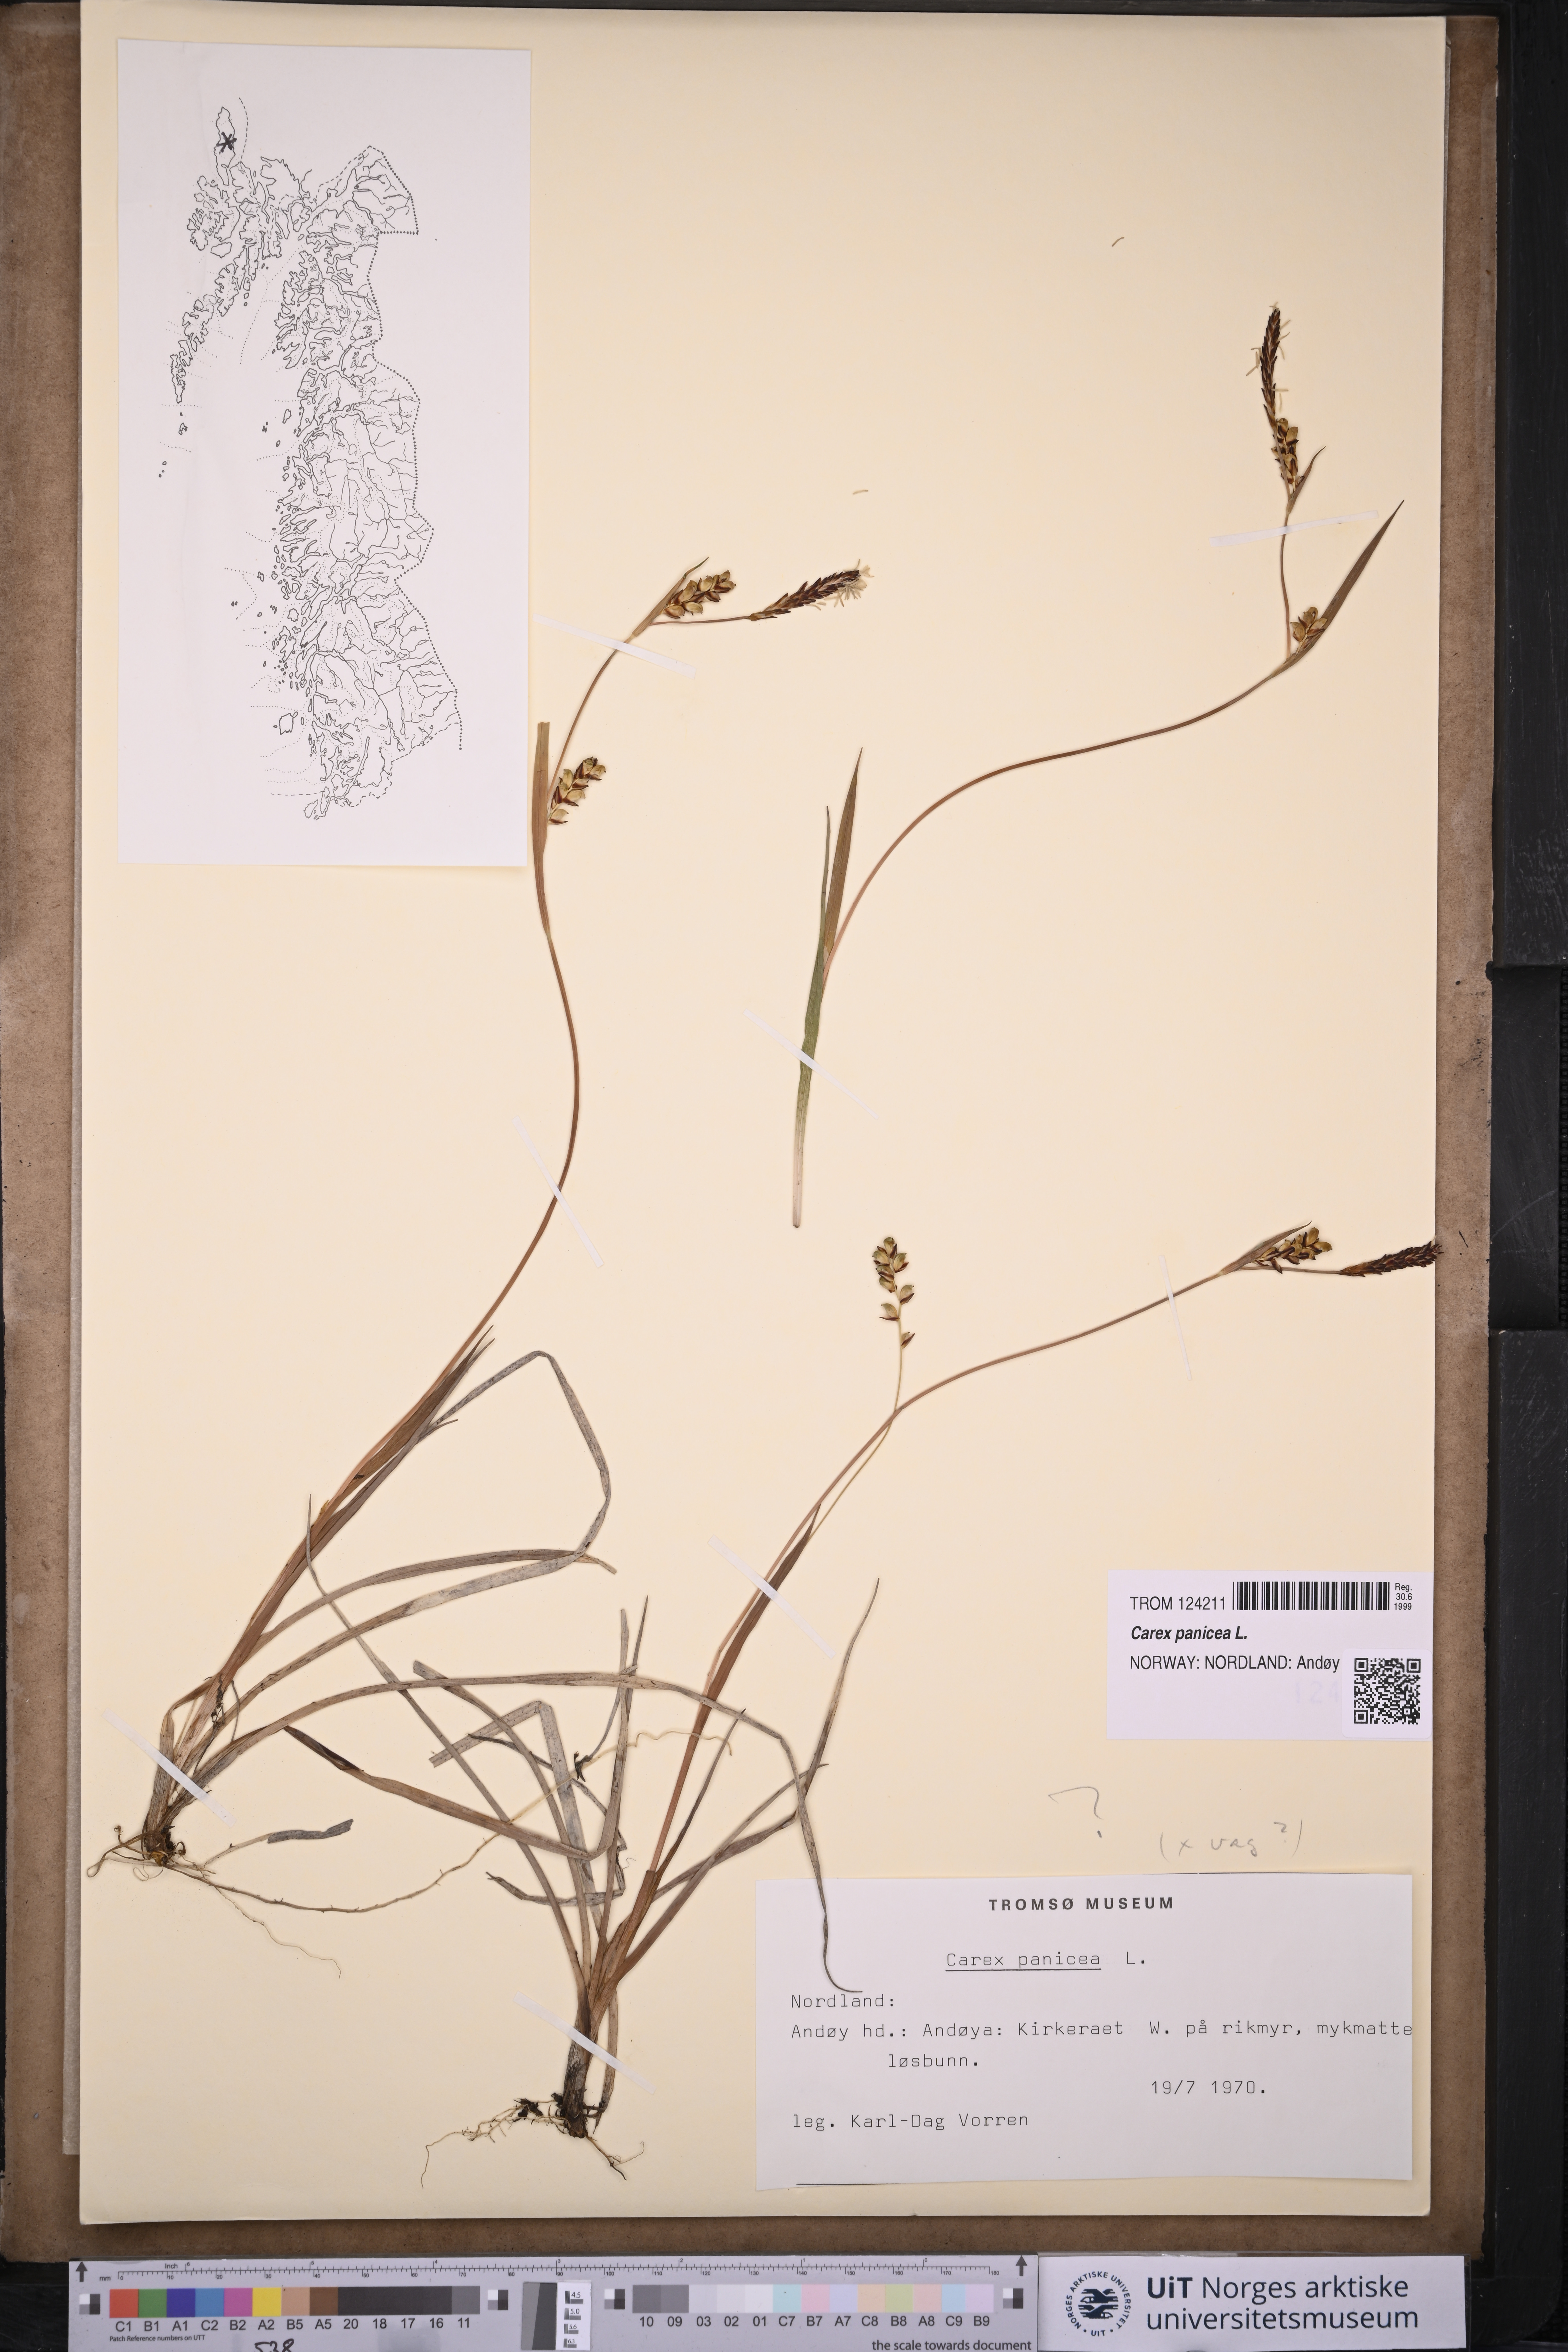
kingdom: Plantae
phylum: Tracheophyta
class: Liliopsida
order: Poales
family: Cyperaceae
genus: Carex
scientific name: Carex panicea
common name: Carnation sedge
